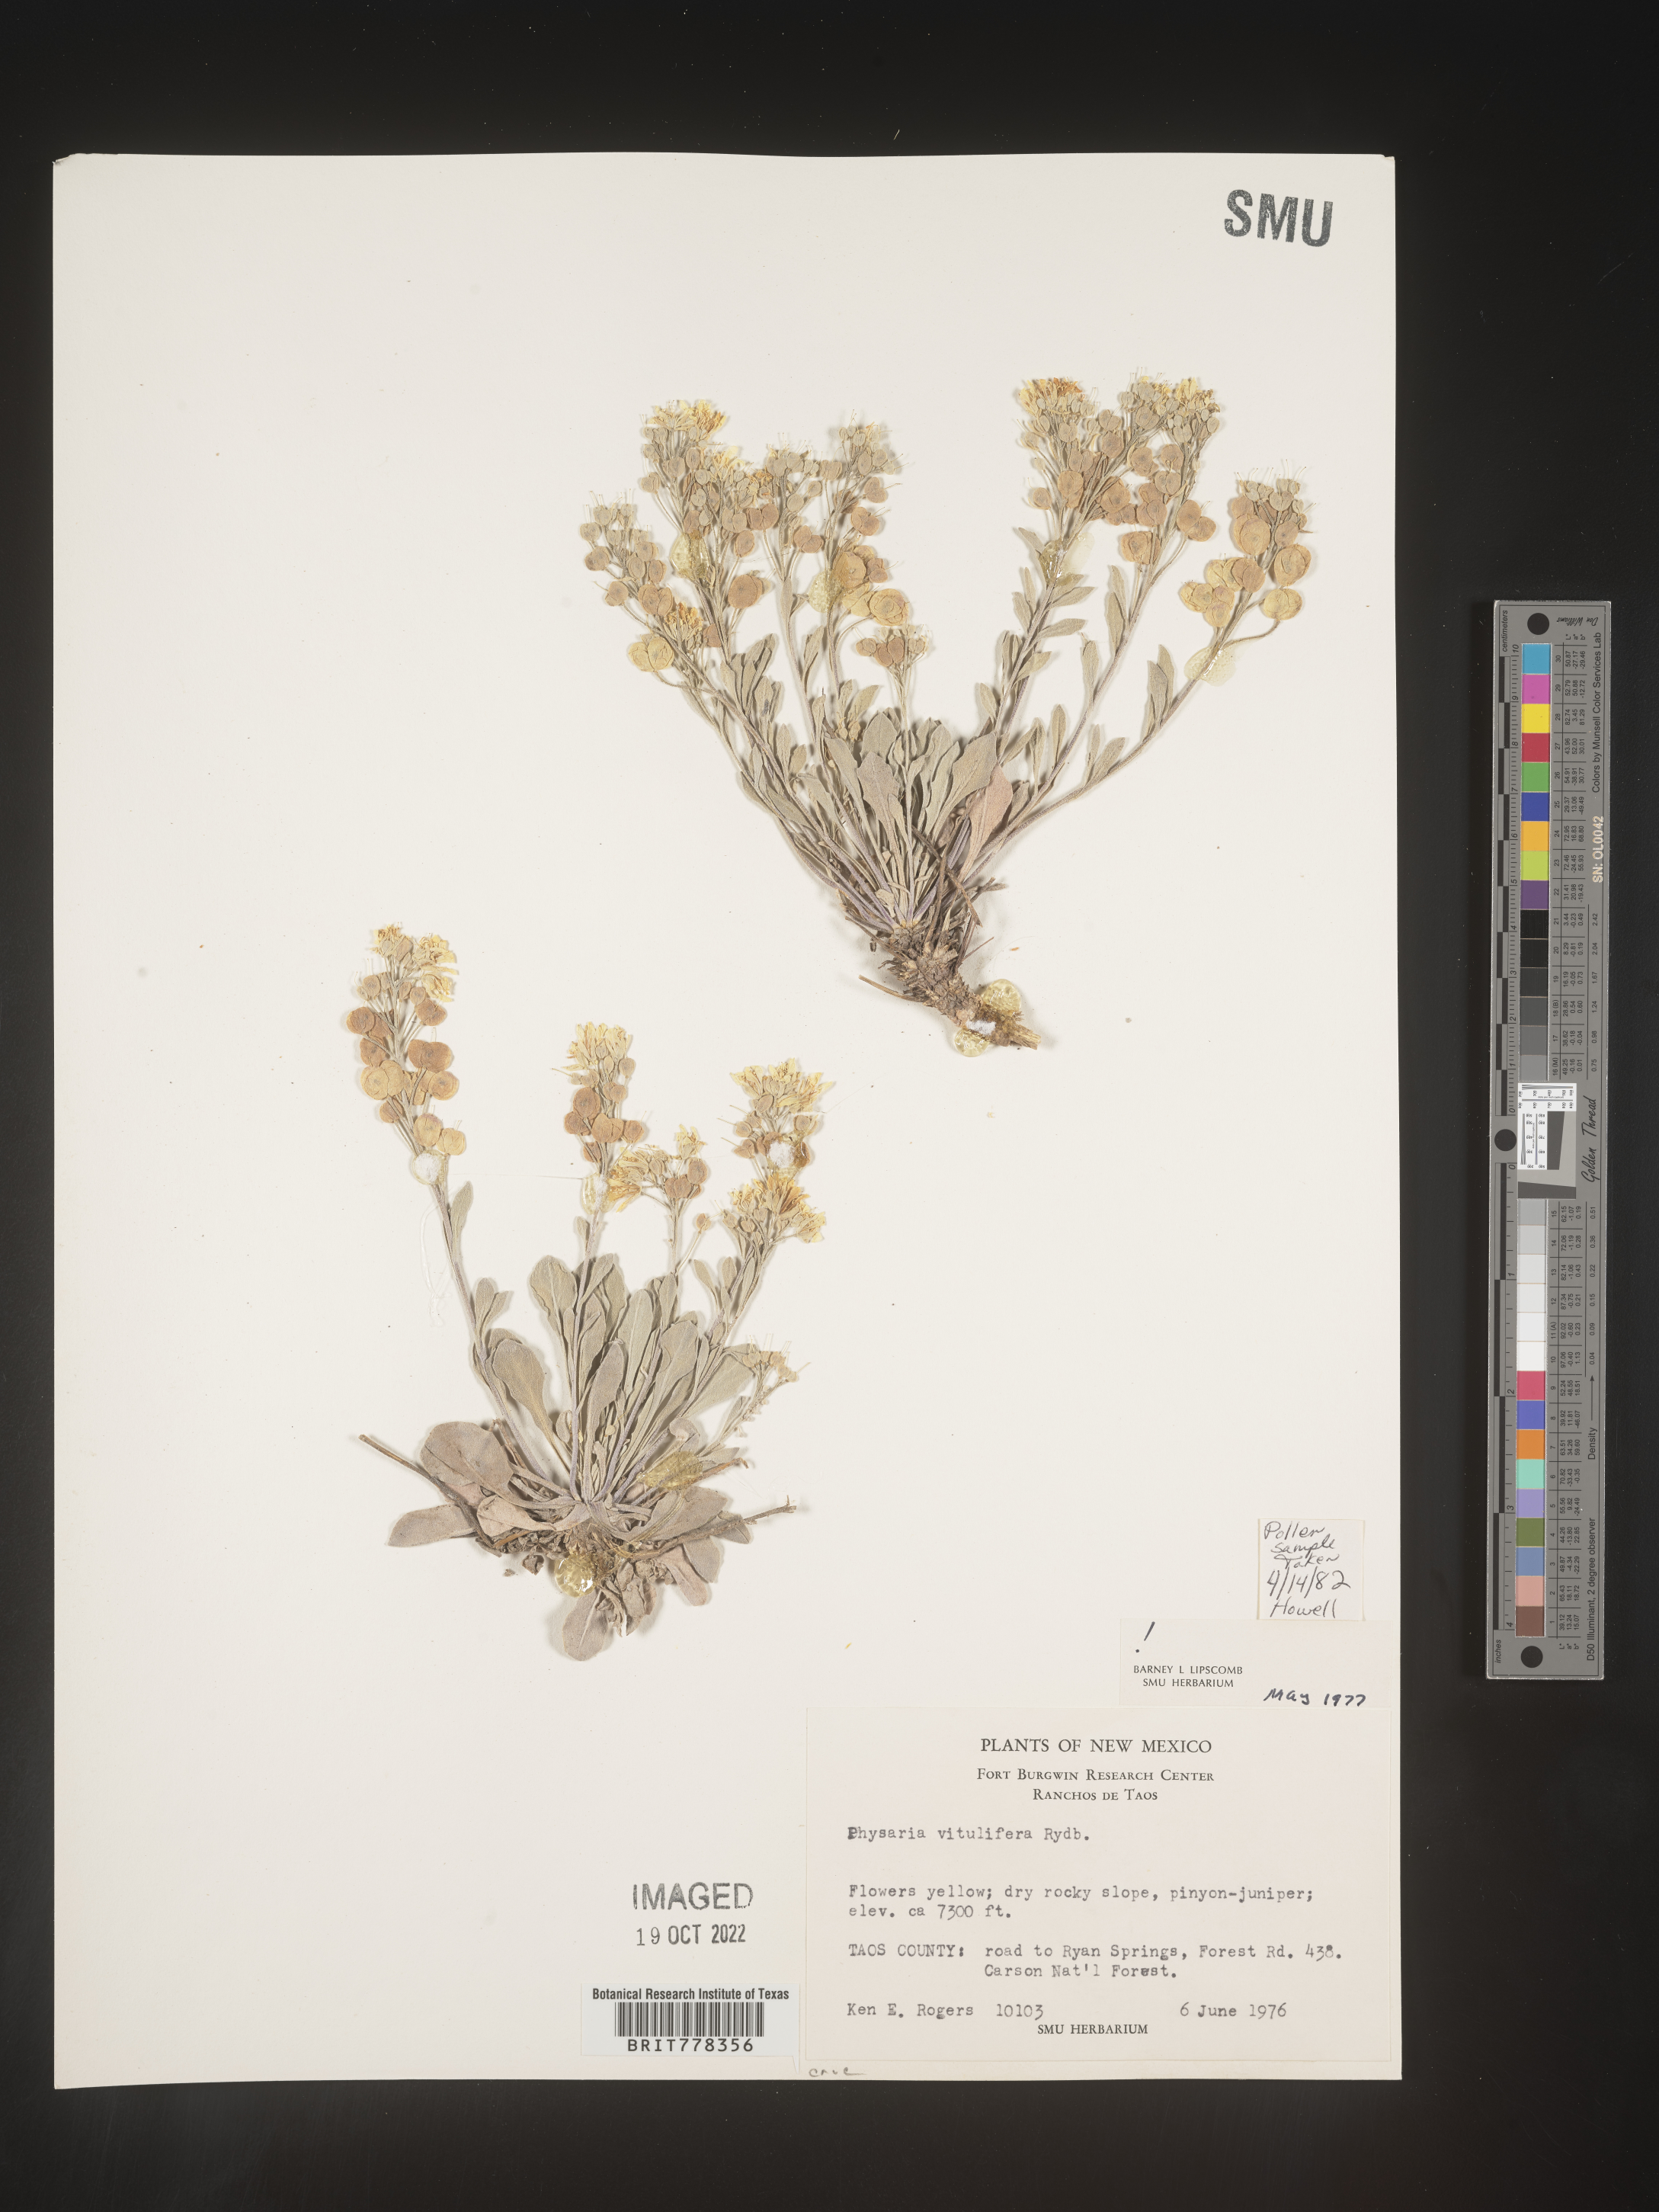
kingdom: Plantae
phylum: Tracheophyta
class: Magnoliopsida
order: Brassicales
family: Brassicaceae
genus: Physaria
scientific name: Physaria
